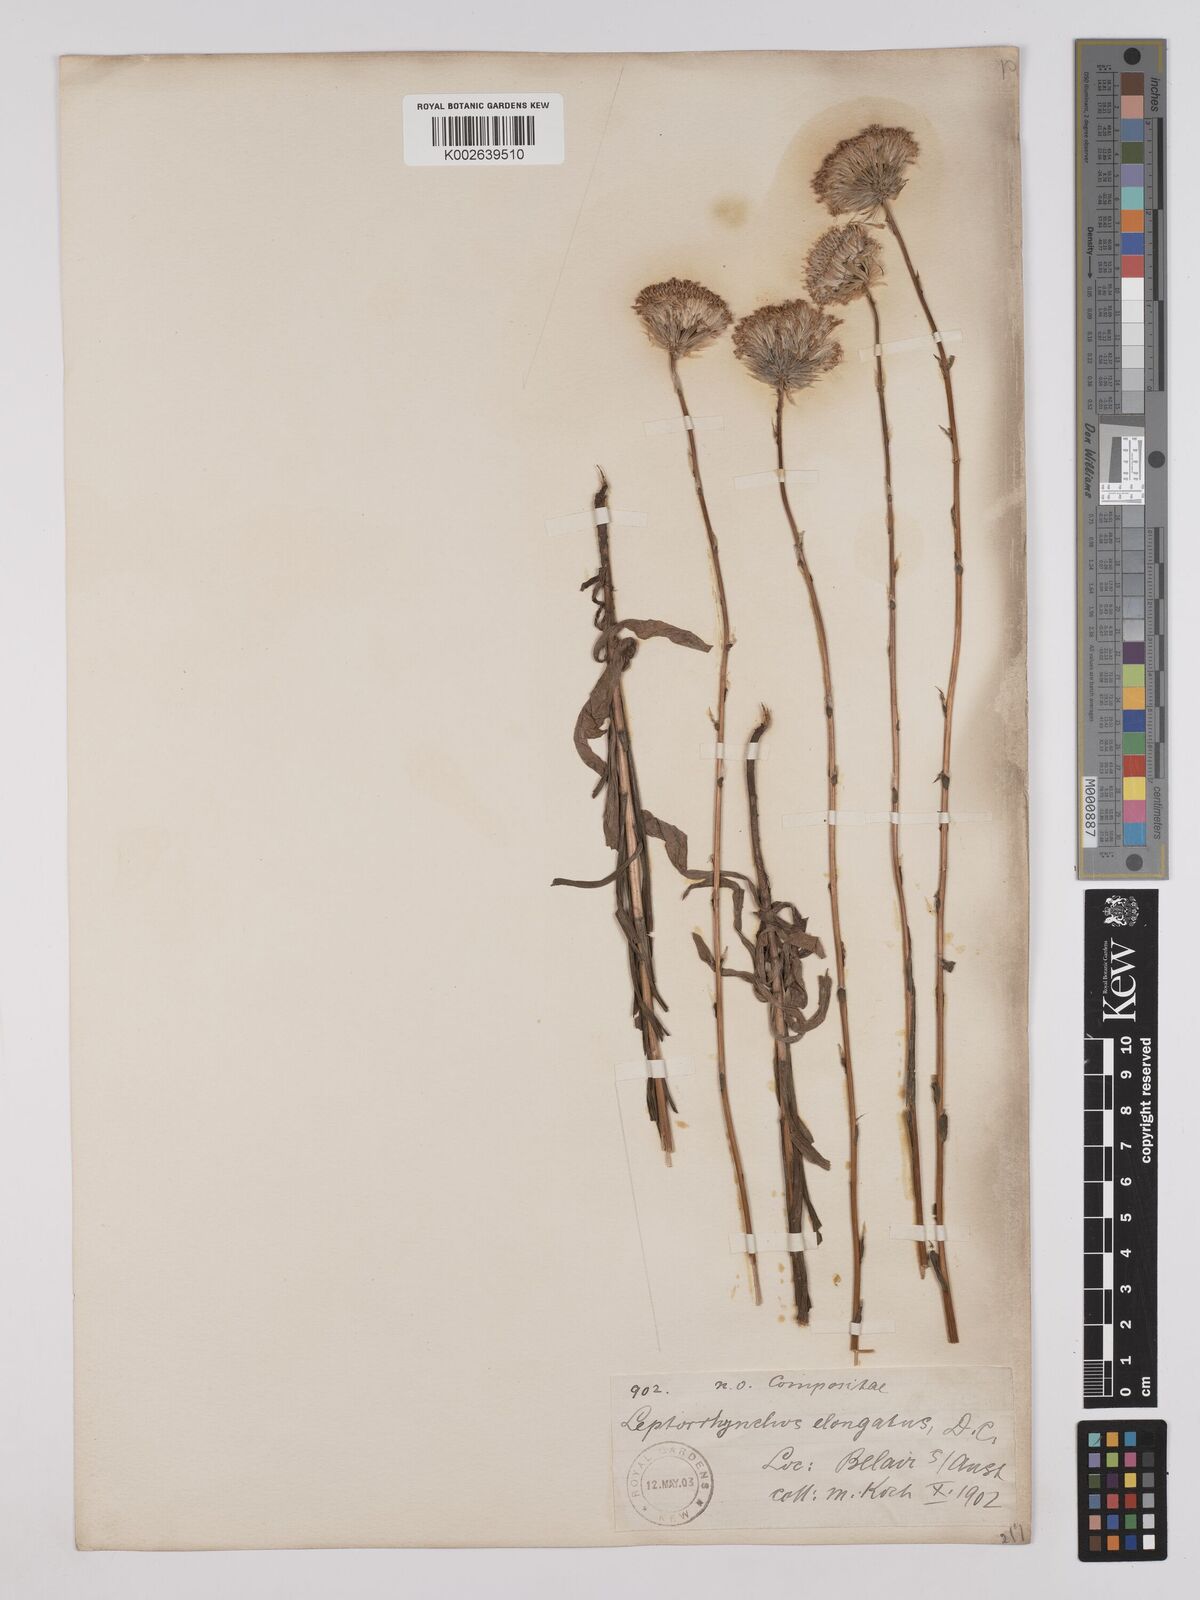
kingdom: Plantae
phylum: Tracheophyta
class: Magnoliopsida
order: Asterales
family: Asteraceae
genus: Leptorhynchos
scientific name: Leptorhynchos elongatus
